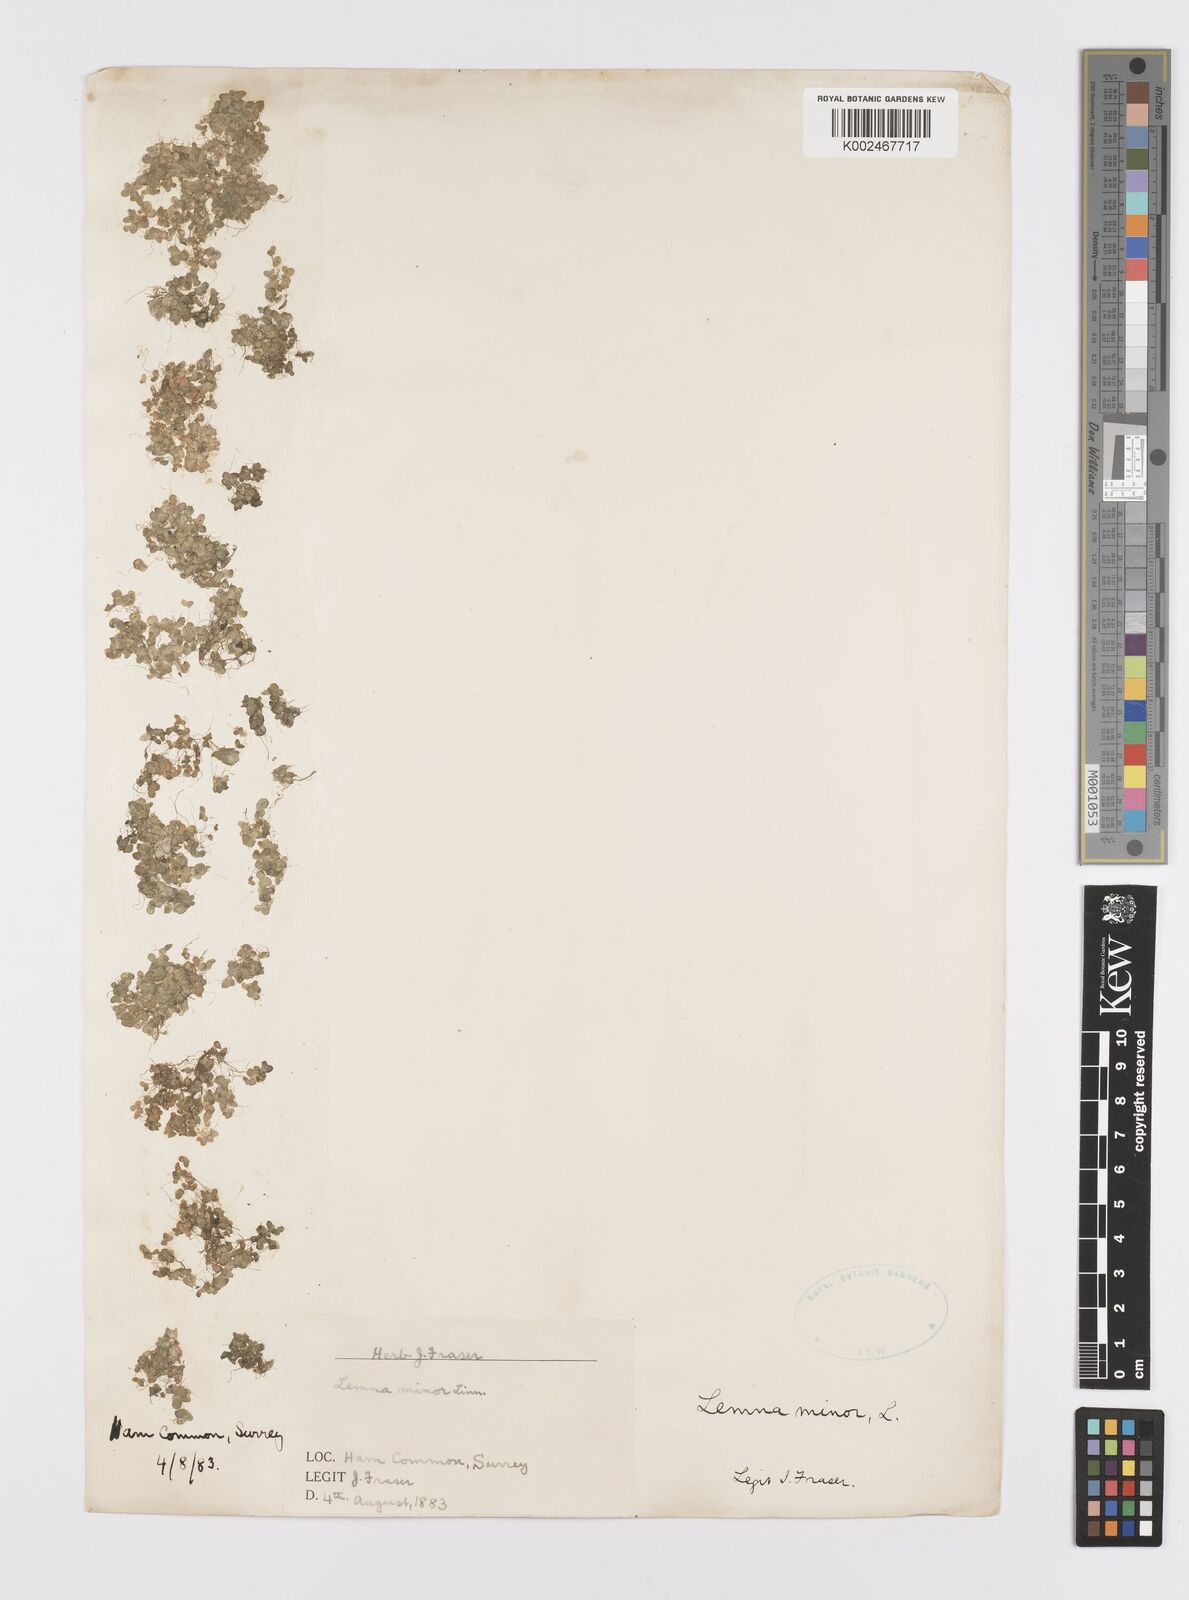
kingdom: Plantae
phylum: Tracheophyta
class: Liliopsida
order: Alismatales
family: Araceae
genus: Lemna
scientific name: Lemna minor
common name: Common duckweed
